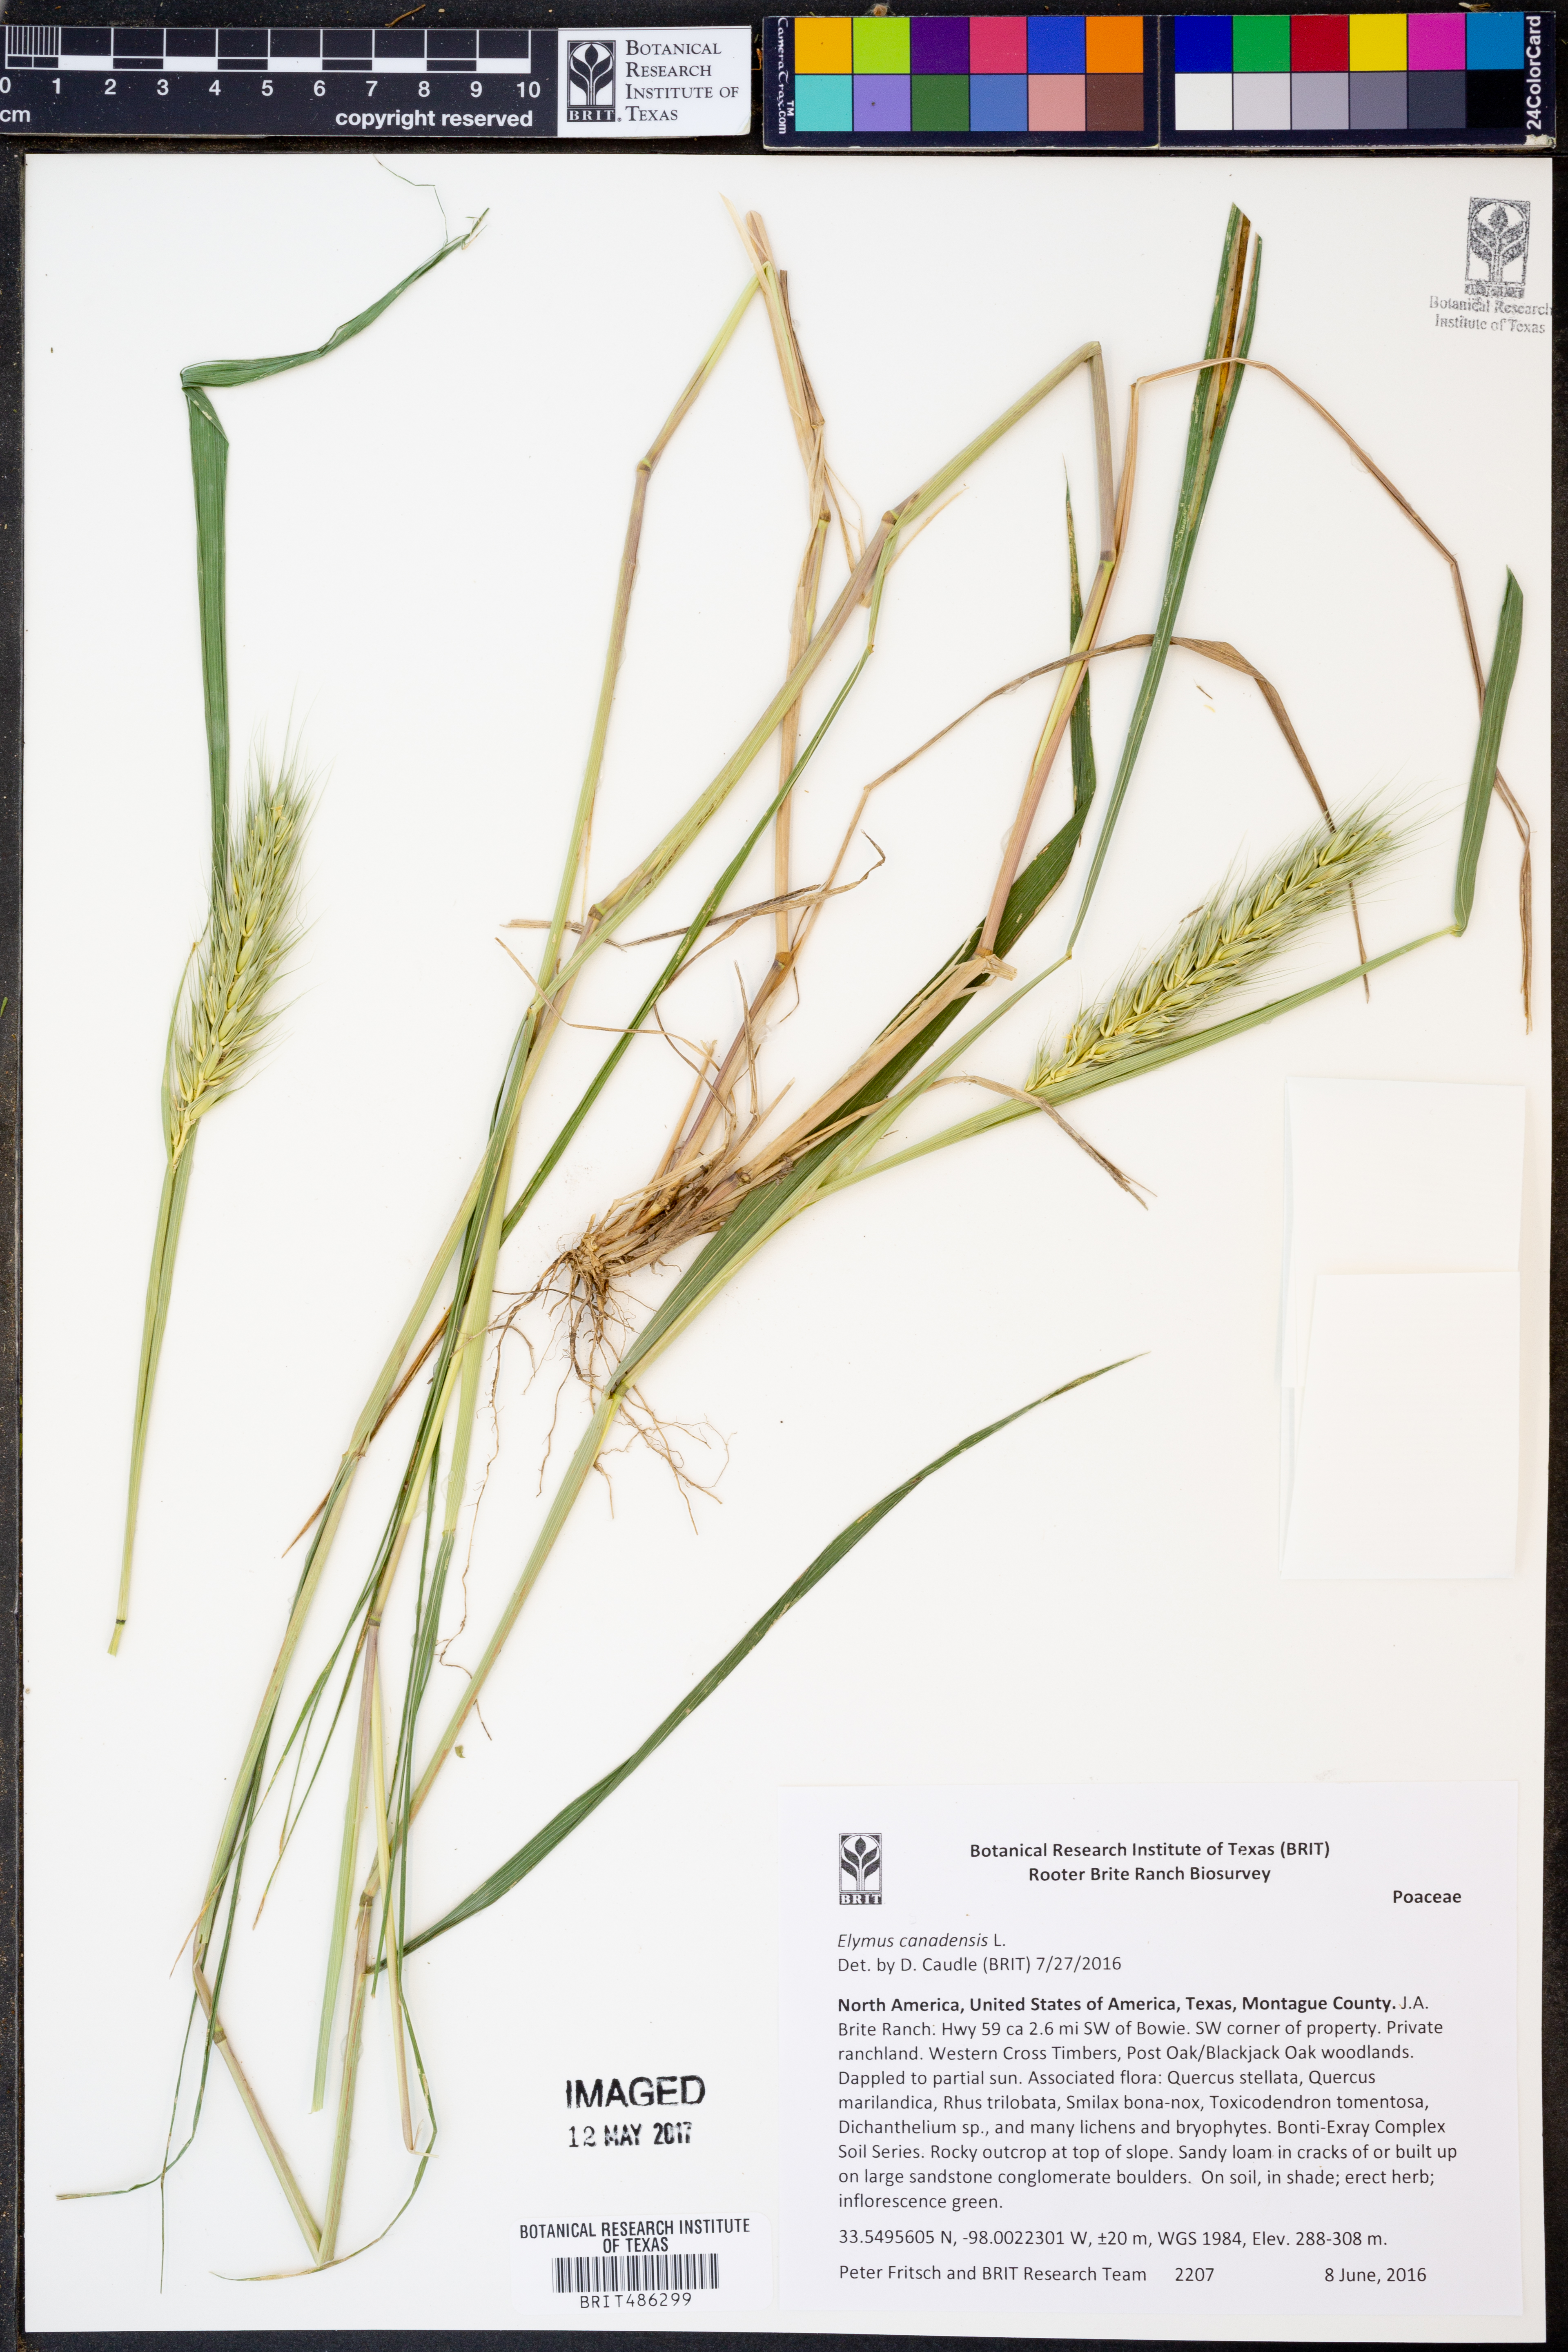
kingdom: Plantae
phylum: Tracheophyta
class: Liliopsida
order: Poales
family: Poaceae
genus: Elymus
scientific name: Elymus canadensis
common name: Canada wild rye
